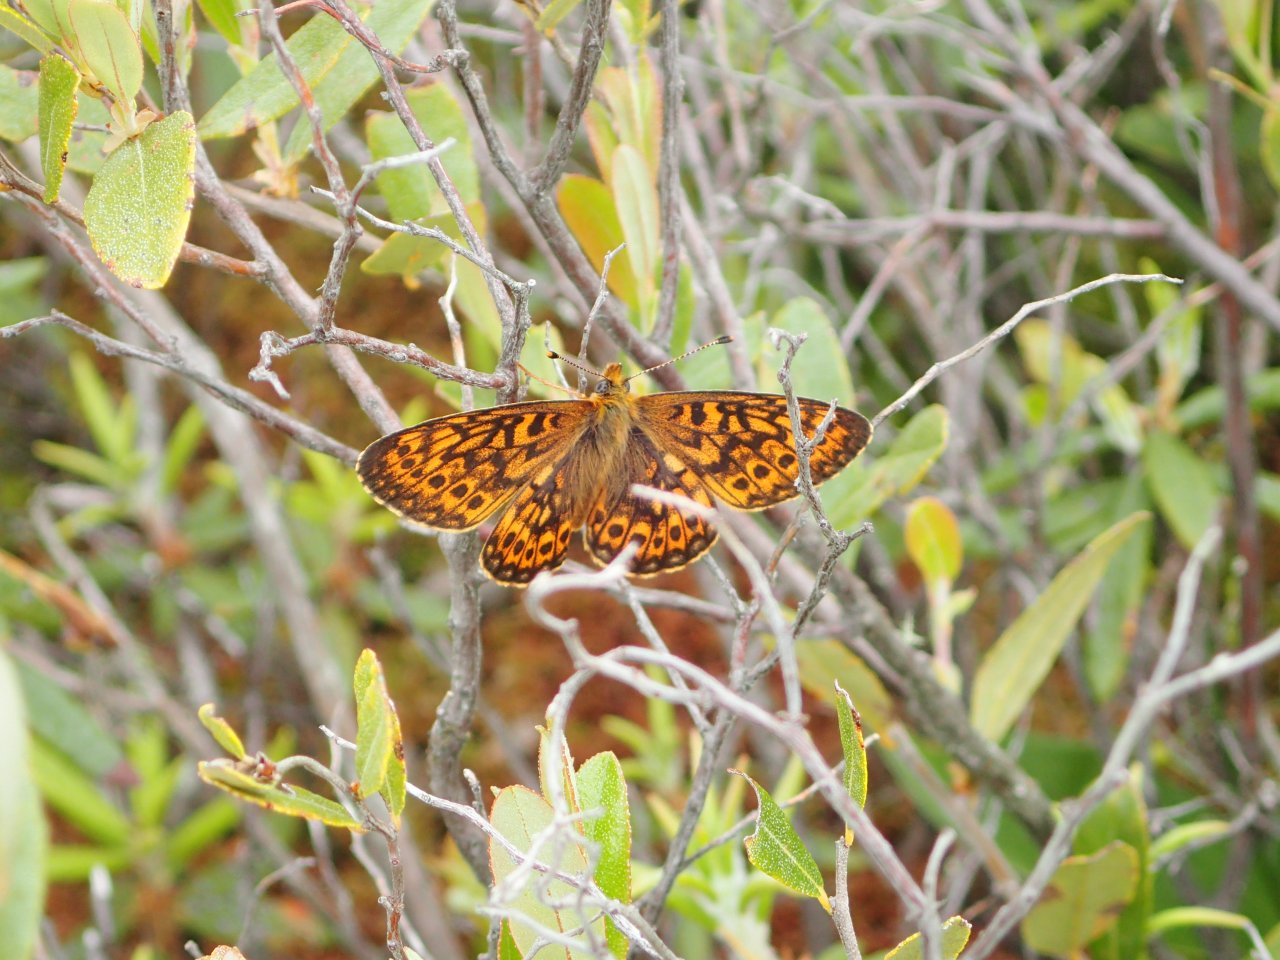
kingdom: Animalia
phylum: Arthropoda
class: Insecta
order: Lepidoptera
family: Nymphalidae
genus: Boloria
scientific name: Boloria eunomia
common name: Bog Fritillary
